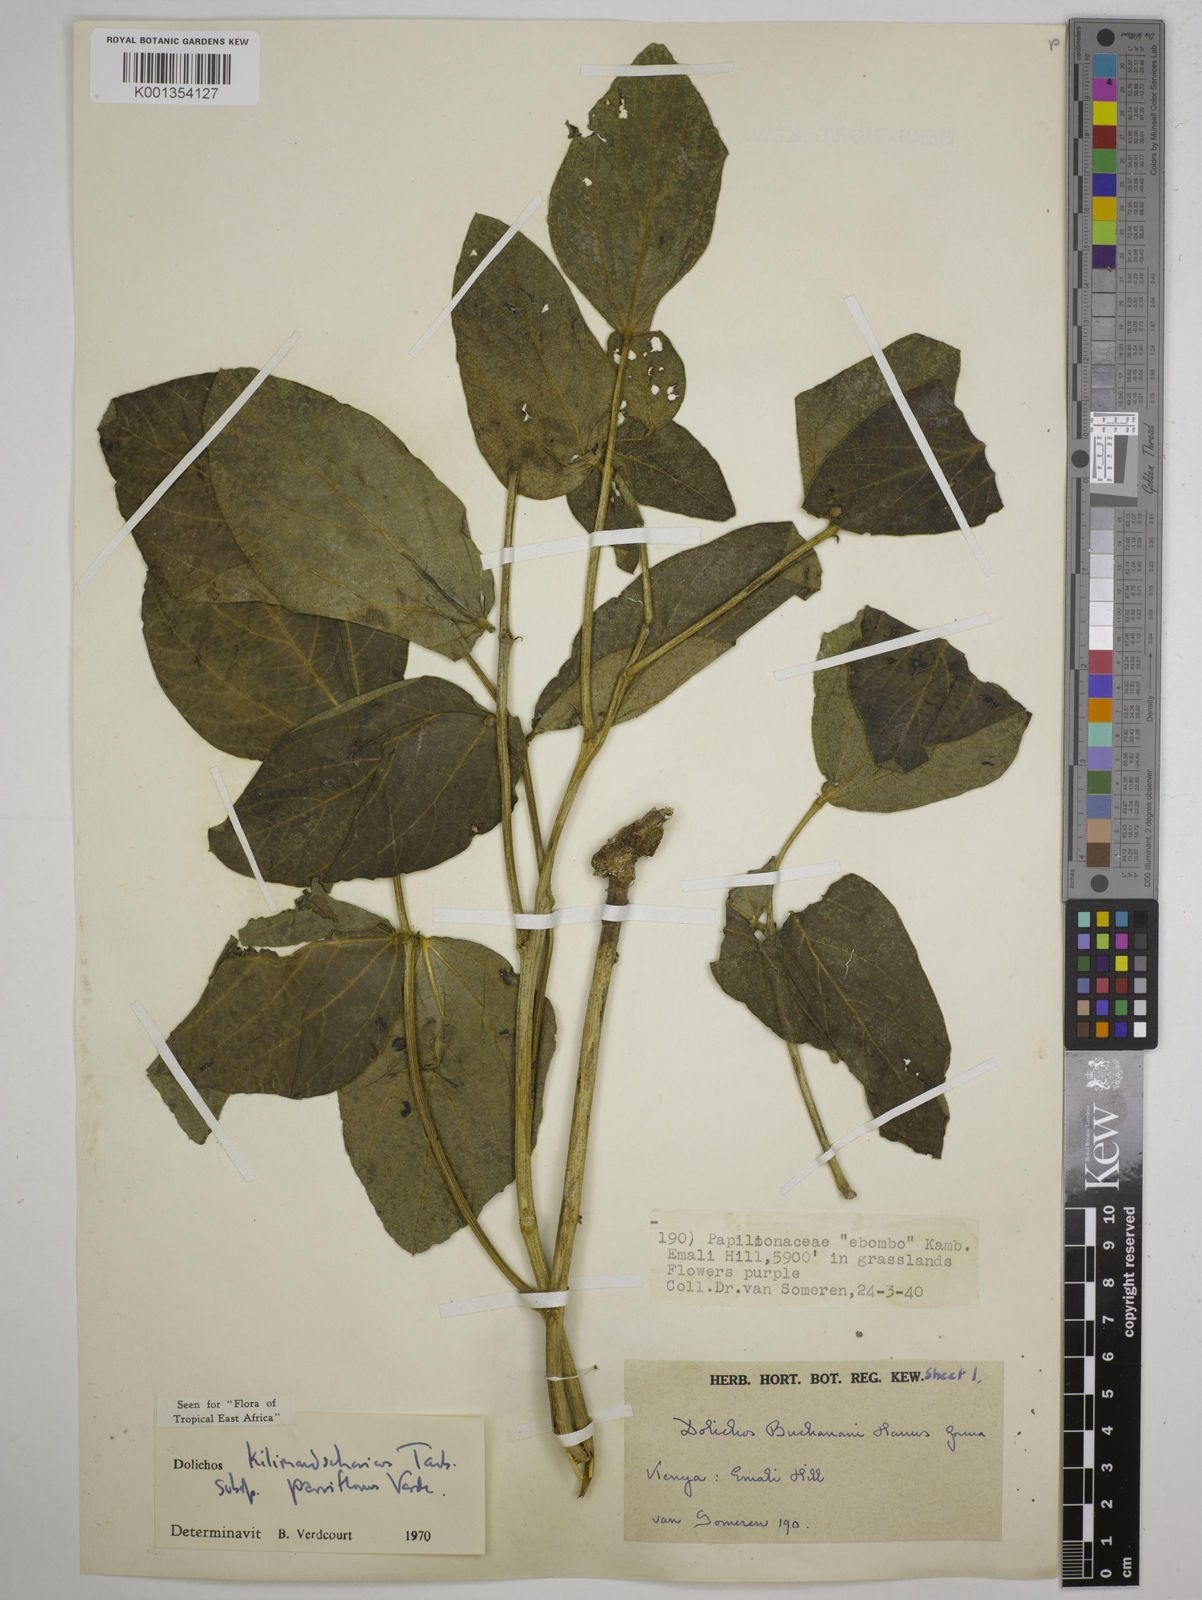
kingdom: Plantae
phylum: Tracheophyta
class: Magnoliopsida
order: Fabales
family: Fabaceae
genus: Dolichos
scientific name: Dolichos
